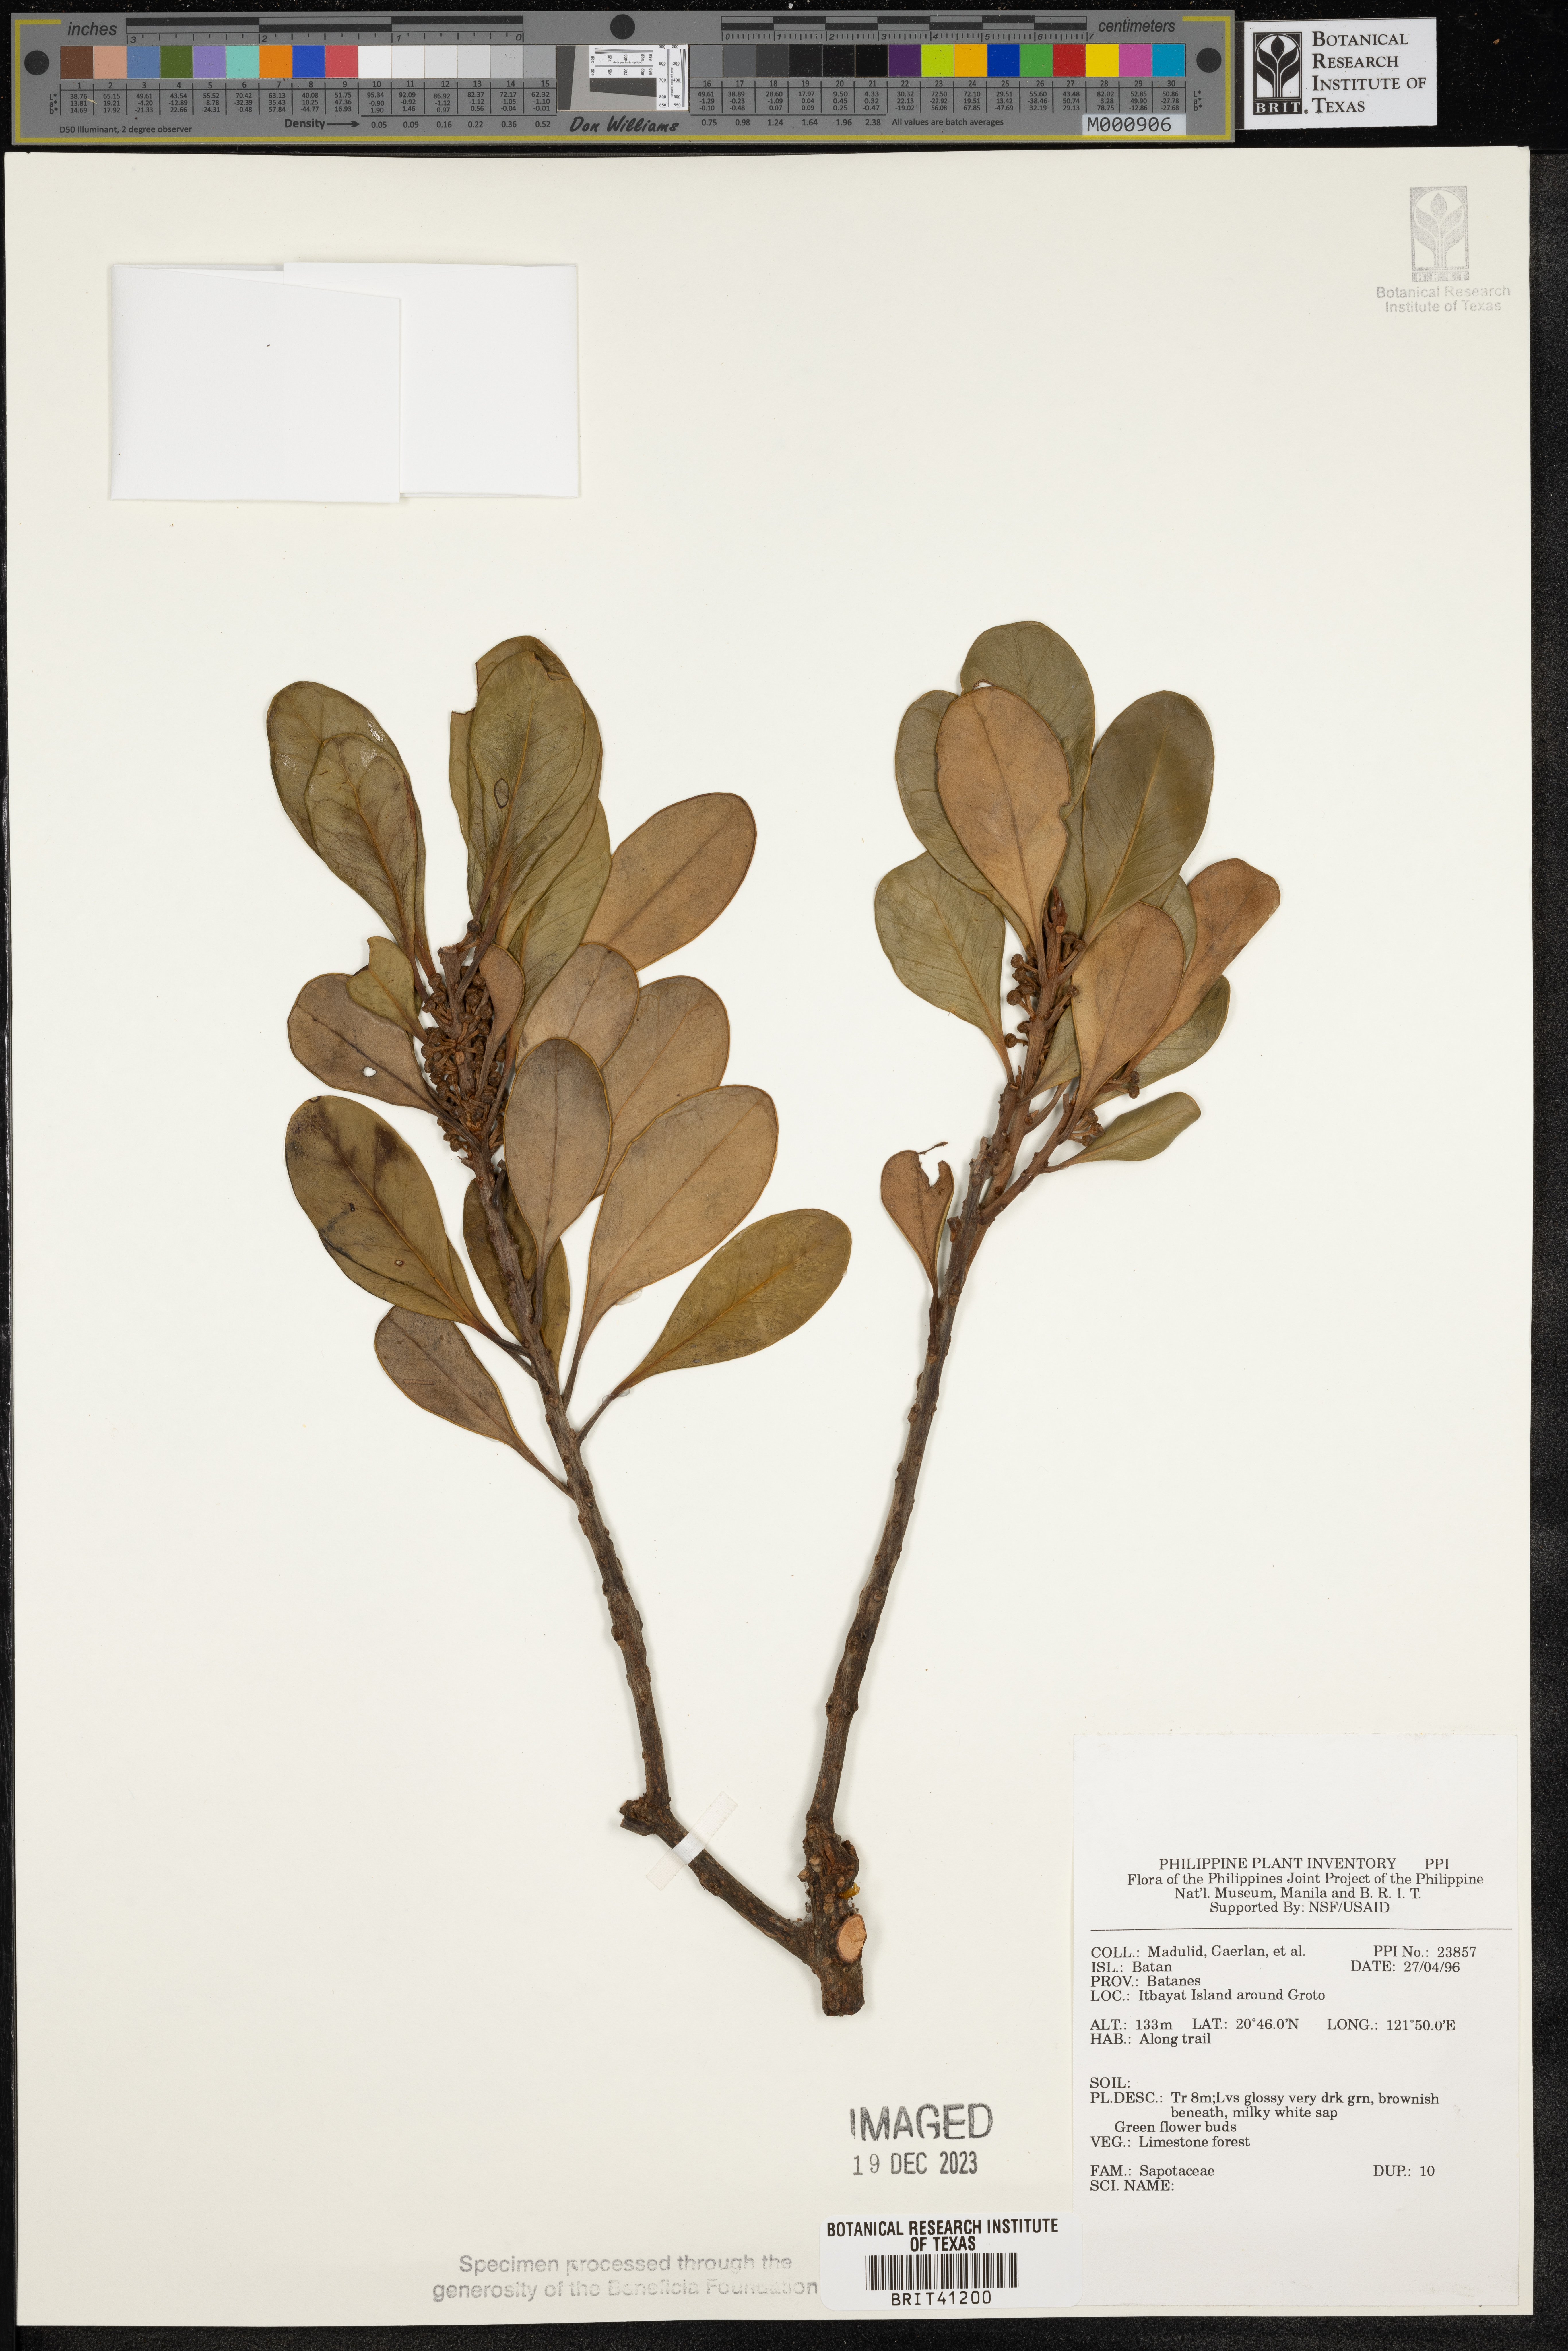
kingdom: Plantae
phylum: Tracheophyta
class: Magnoliopsida
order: Ericales
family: Sapotaceae
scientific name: Sapotaceae
